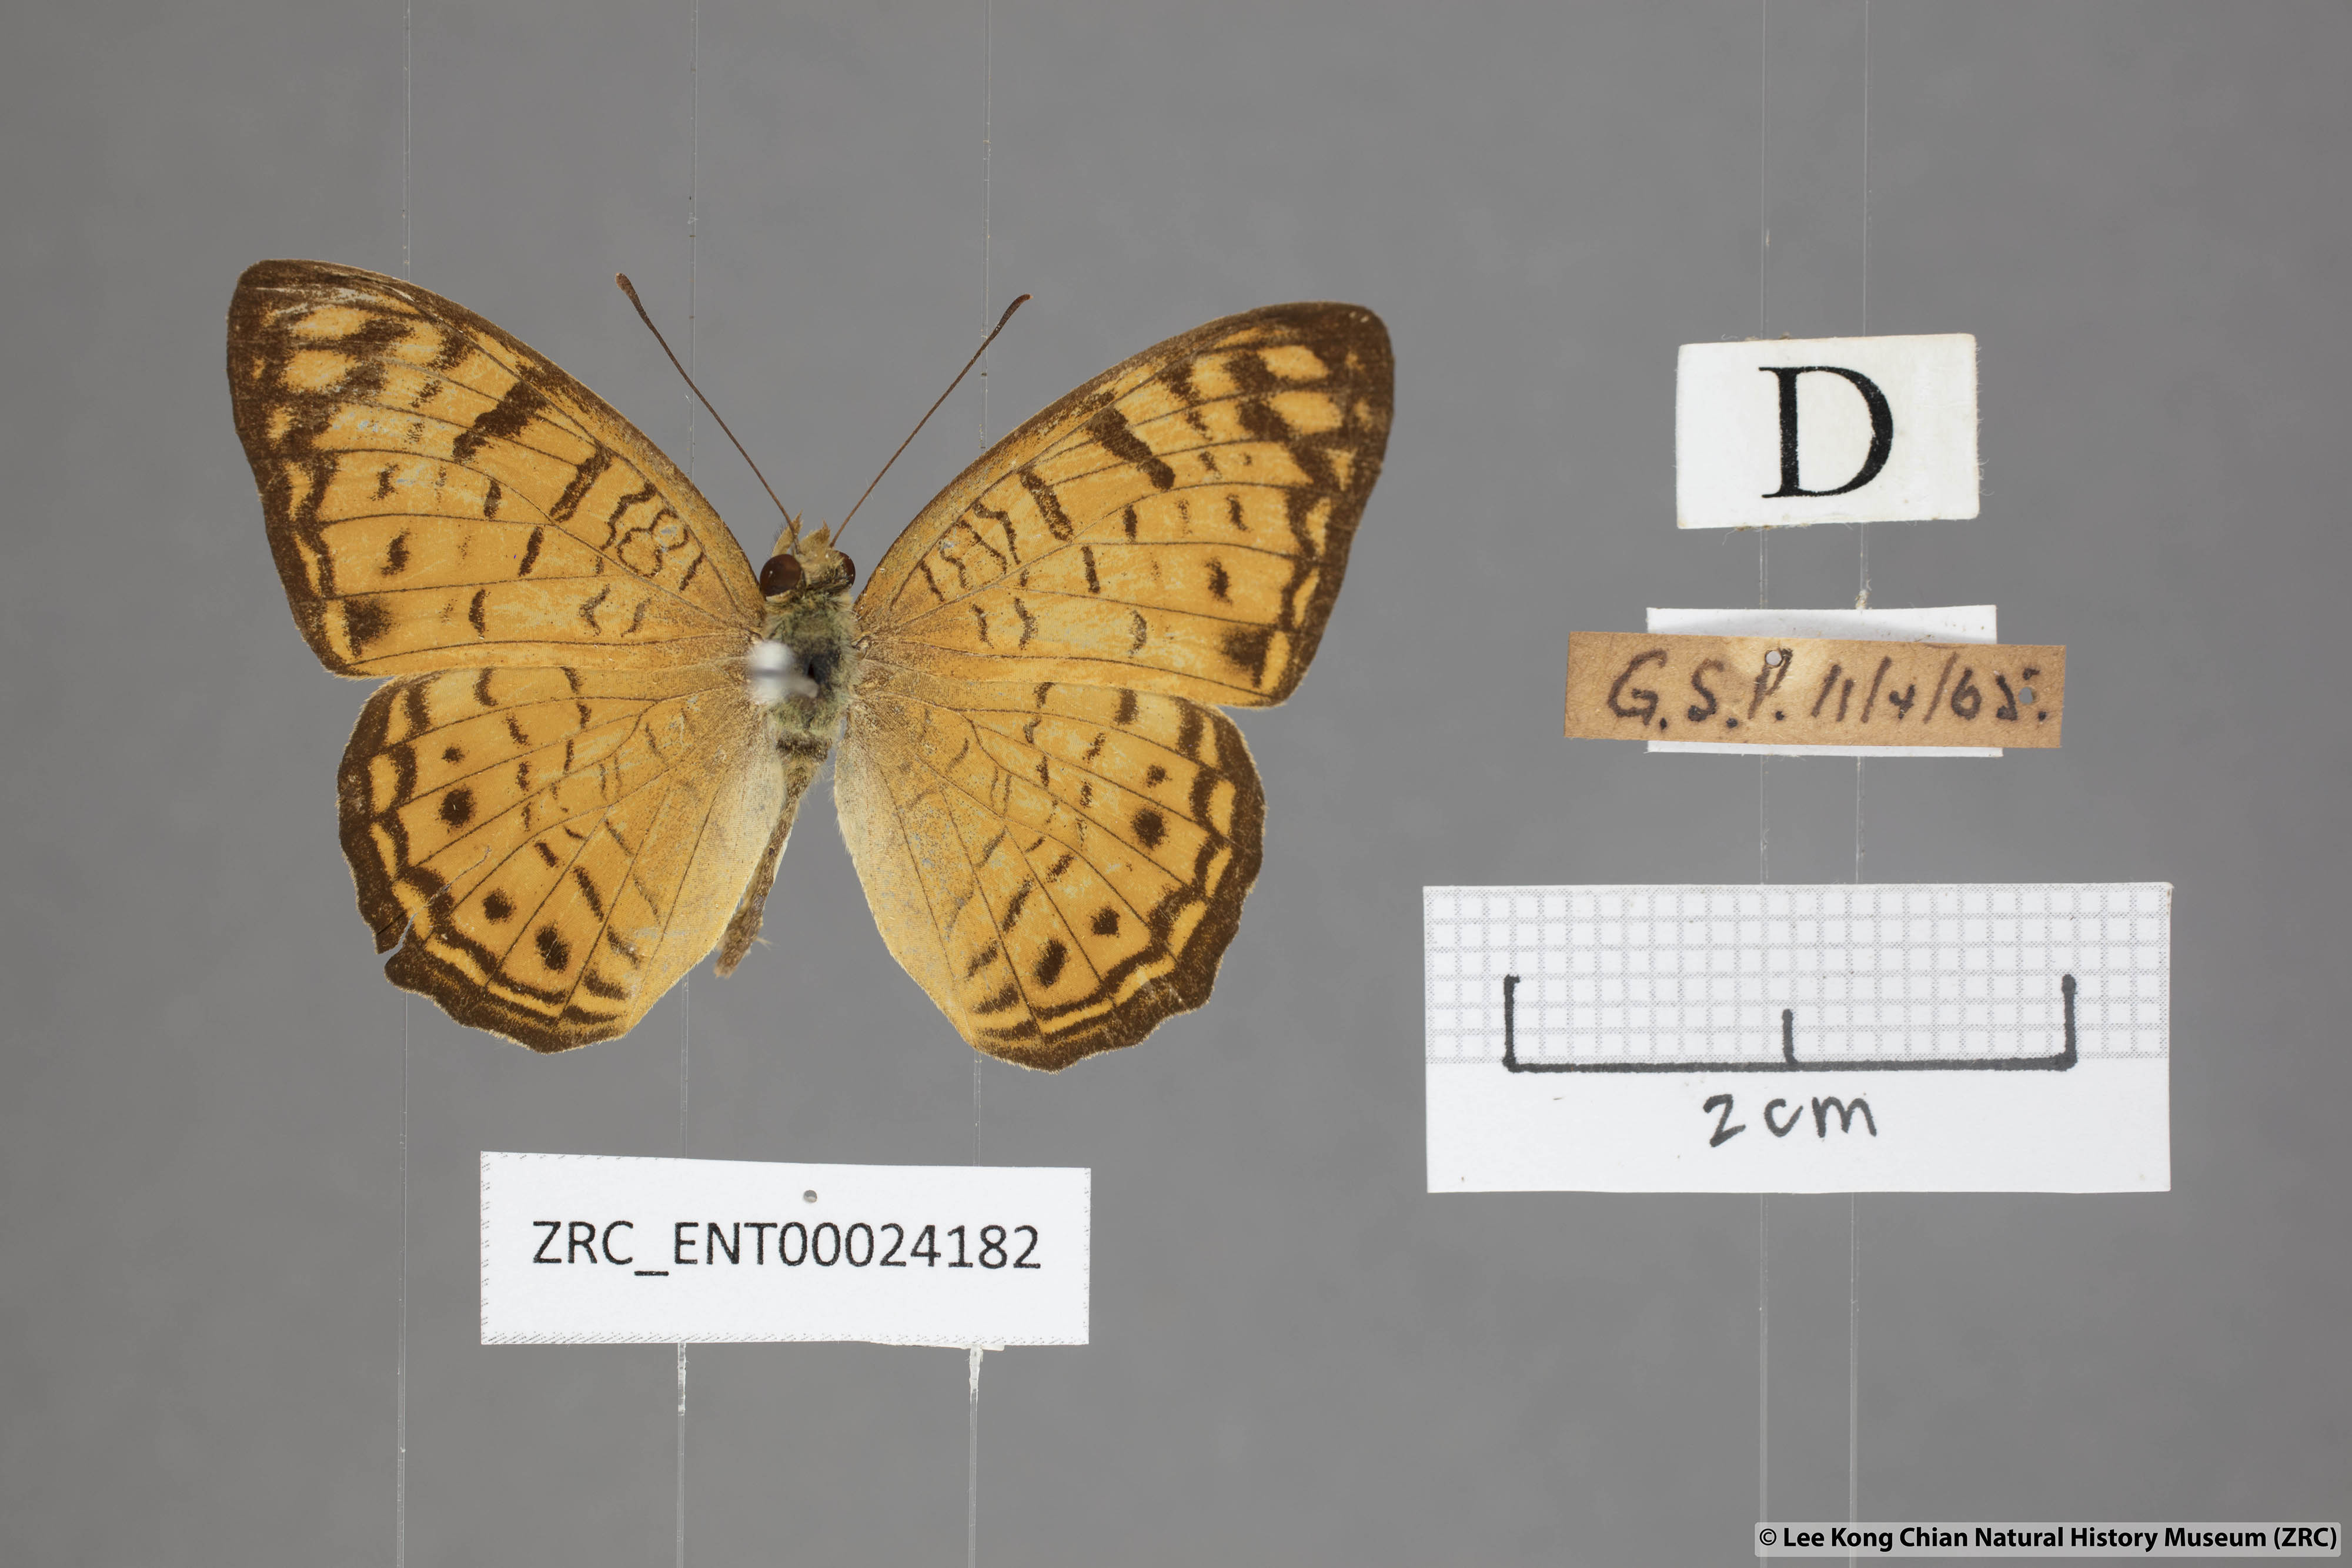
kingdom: Animalia
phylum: Arthropoda
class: Insecta
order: Lepidoptera
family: Nymphalidae
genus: Phalanta
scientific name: Phalanta alcippe
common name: Small leopard
